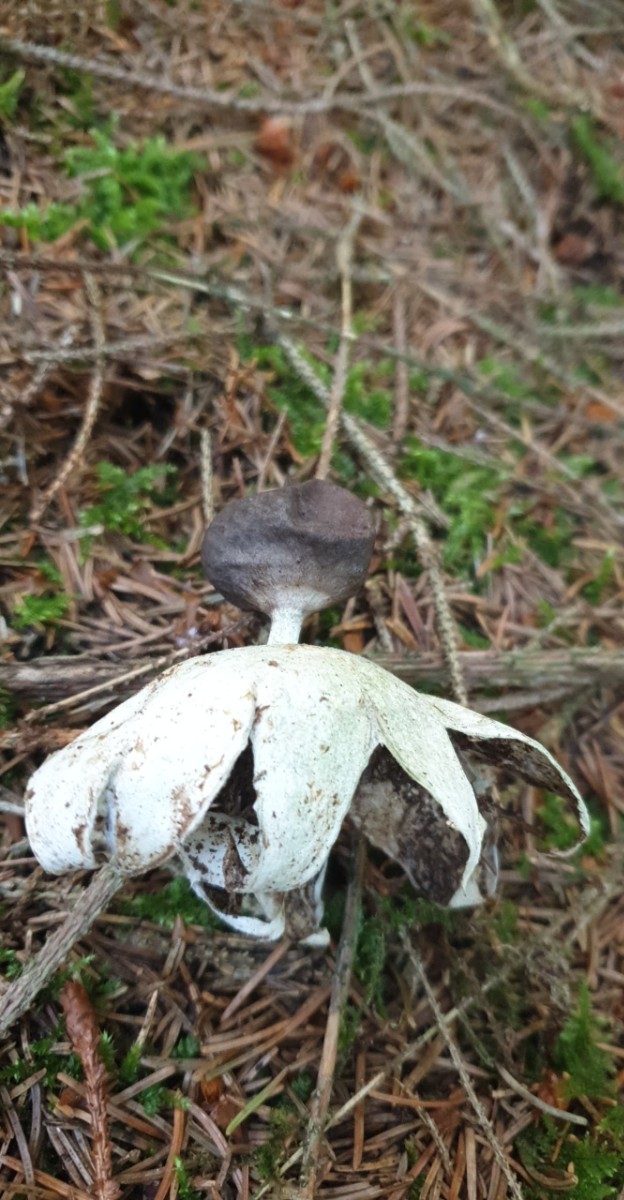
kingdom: Fungi
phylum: Basidiomycota
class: Agaricomycetes
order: Geastrales
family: Geastraceae
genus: Geastrum
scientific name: Geastrum pectinatum
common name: stilket stjernebold
